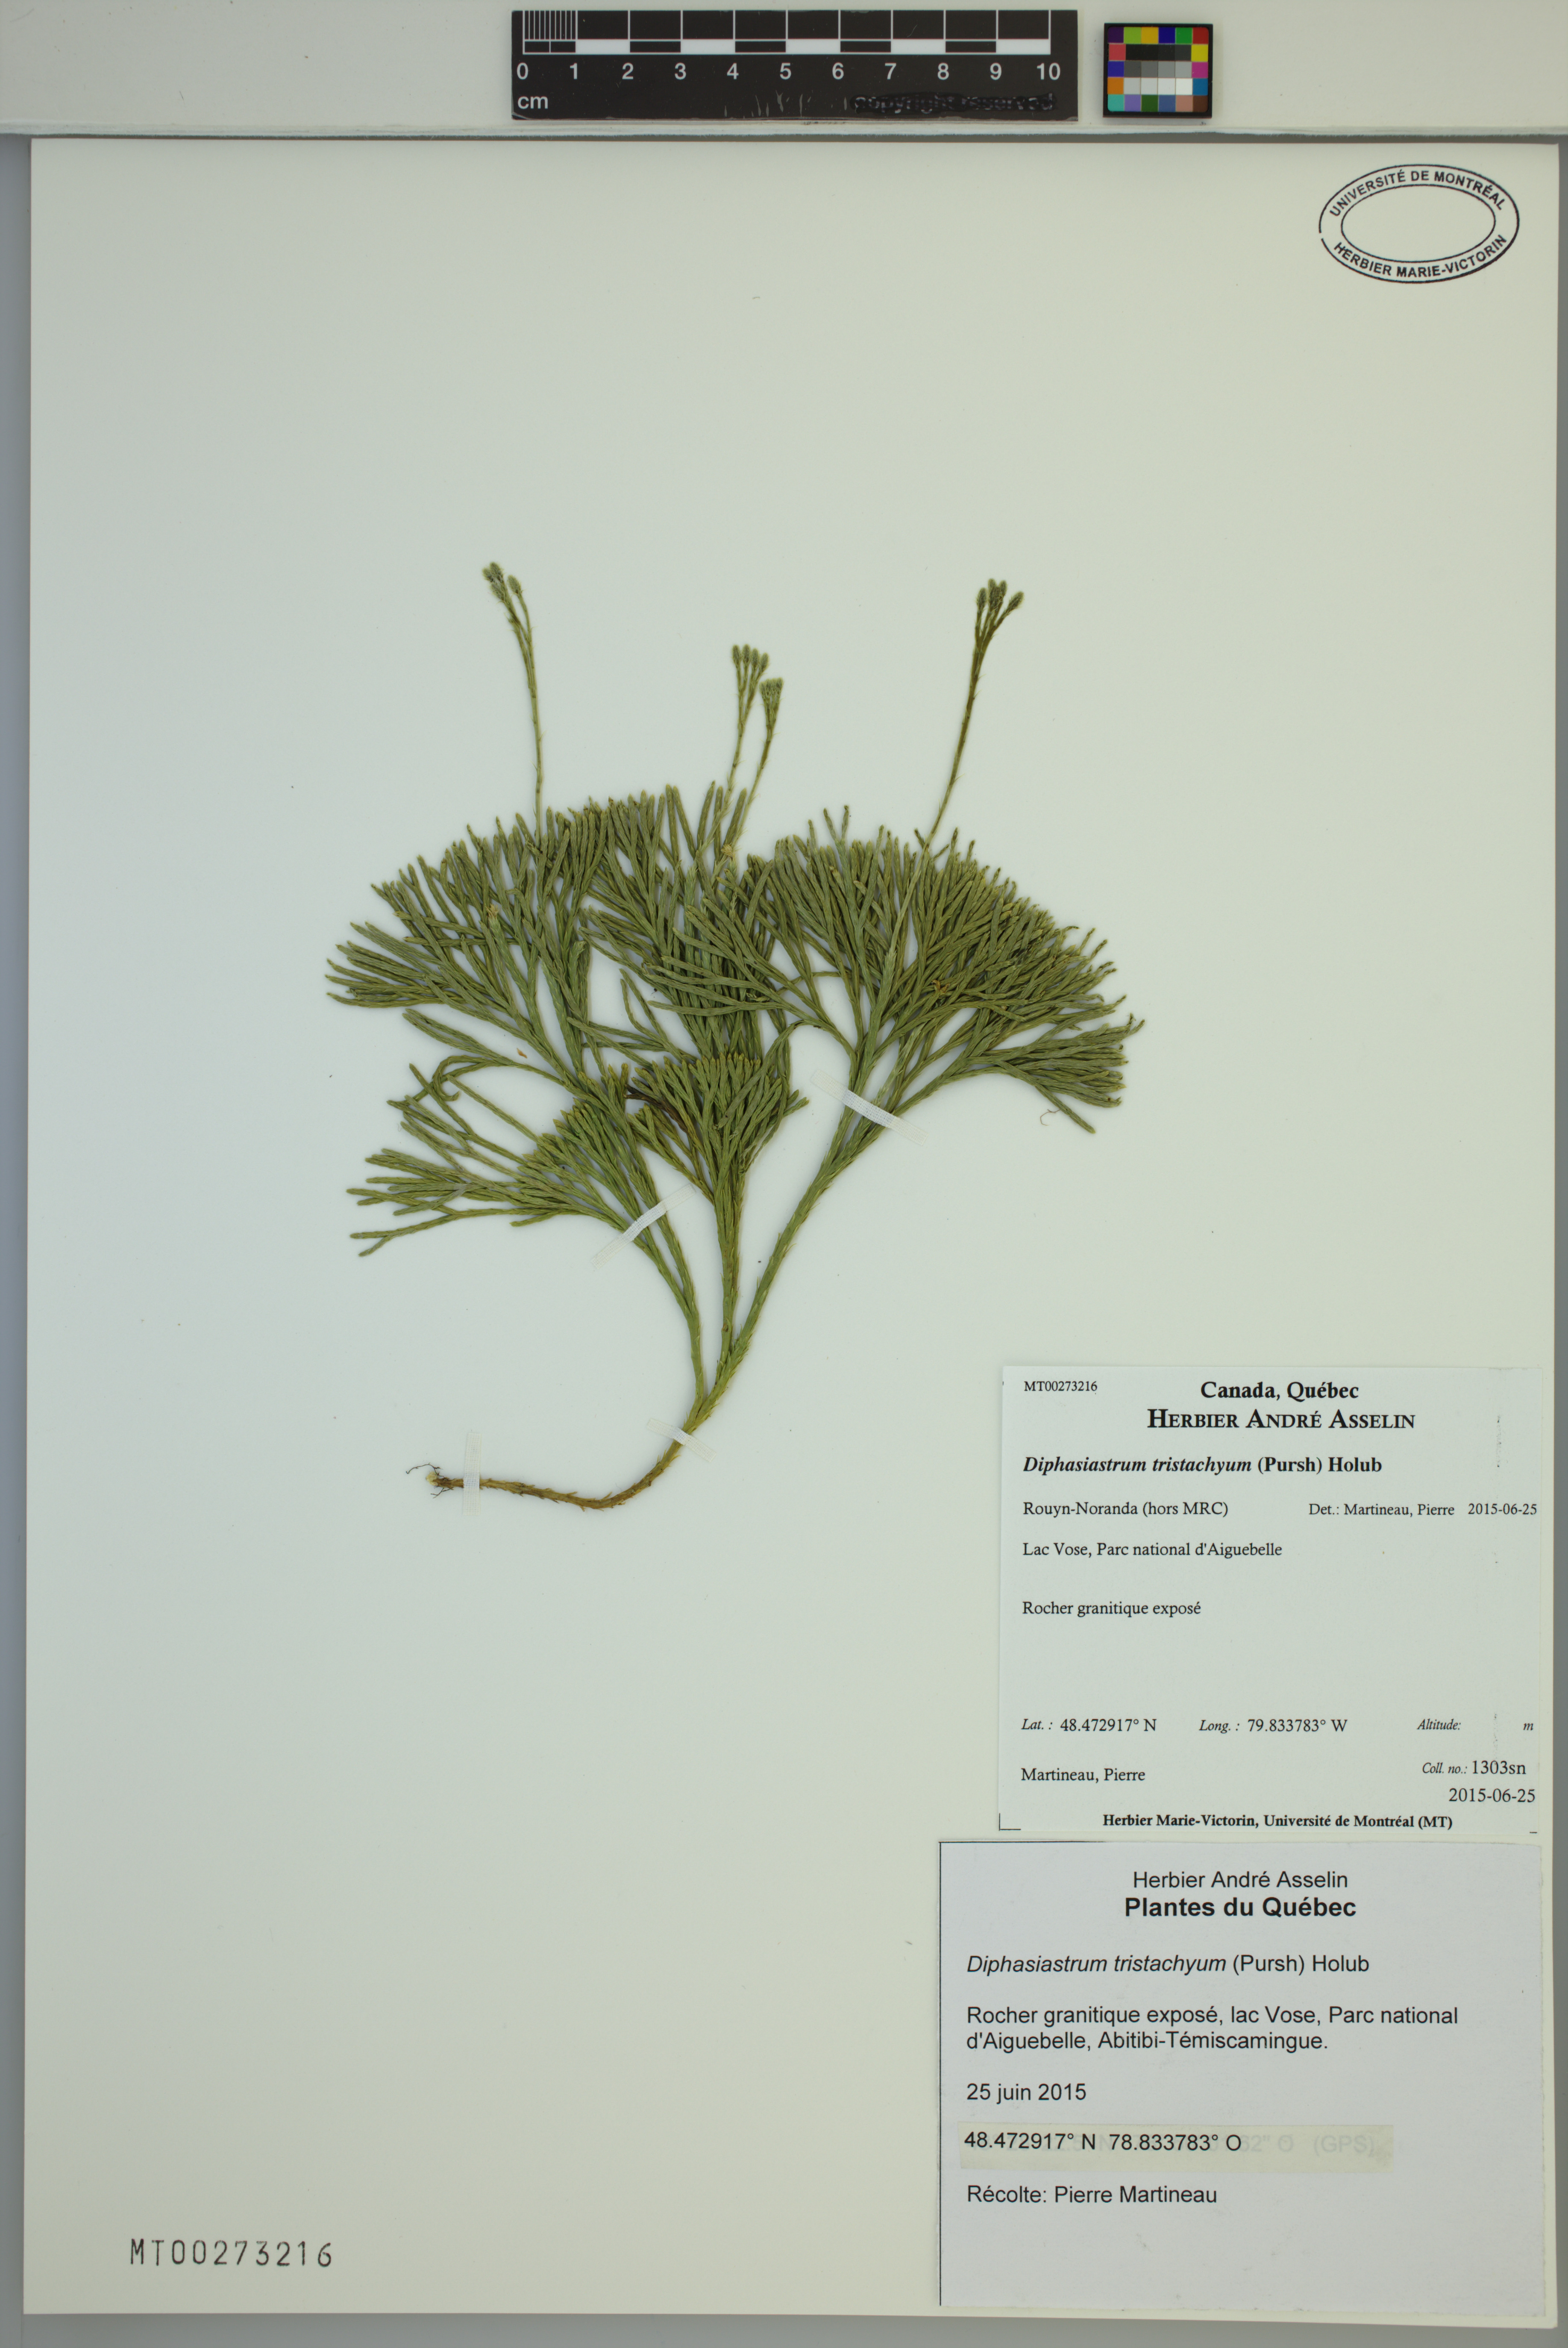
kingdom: Plantae
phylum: Tracheophyta
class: Lycopodiopsida
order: Lycopodiales
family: Lycopodiaceae
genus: Diphasiastrum
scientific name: Diphasiastrum tristachyum
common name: Blue ground-cedar
